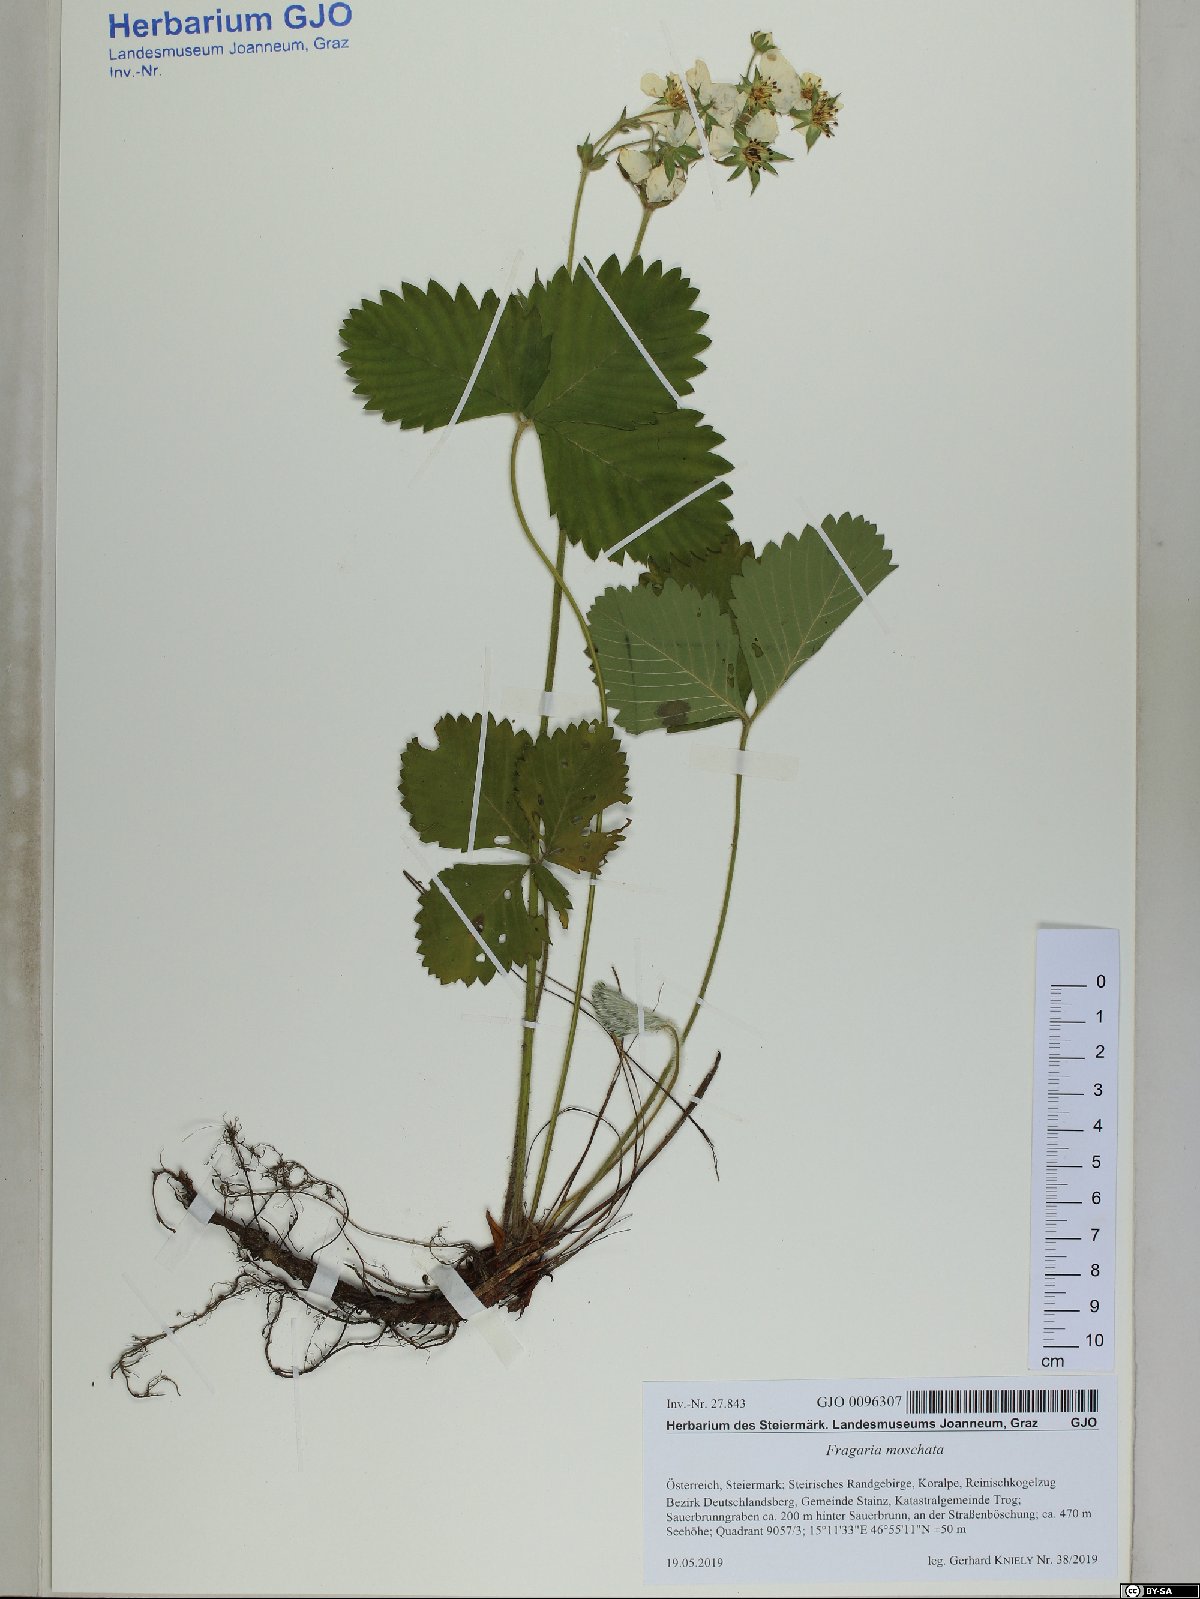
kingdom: Plantae
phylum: Tracheophyta
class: Magnoliopsida
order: Rosales
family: Rosaceae
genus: Fragaria
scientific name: Fragaria moschata
